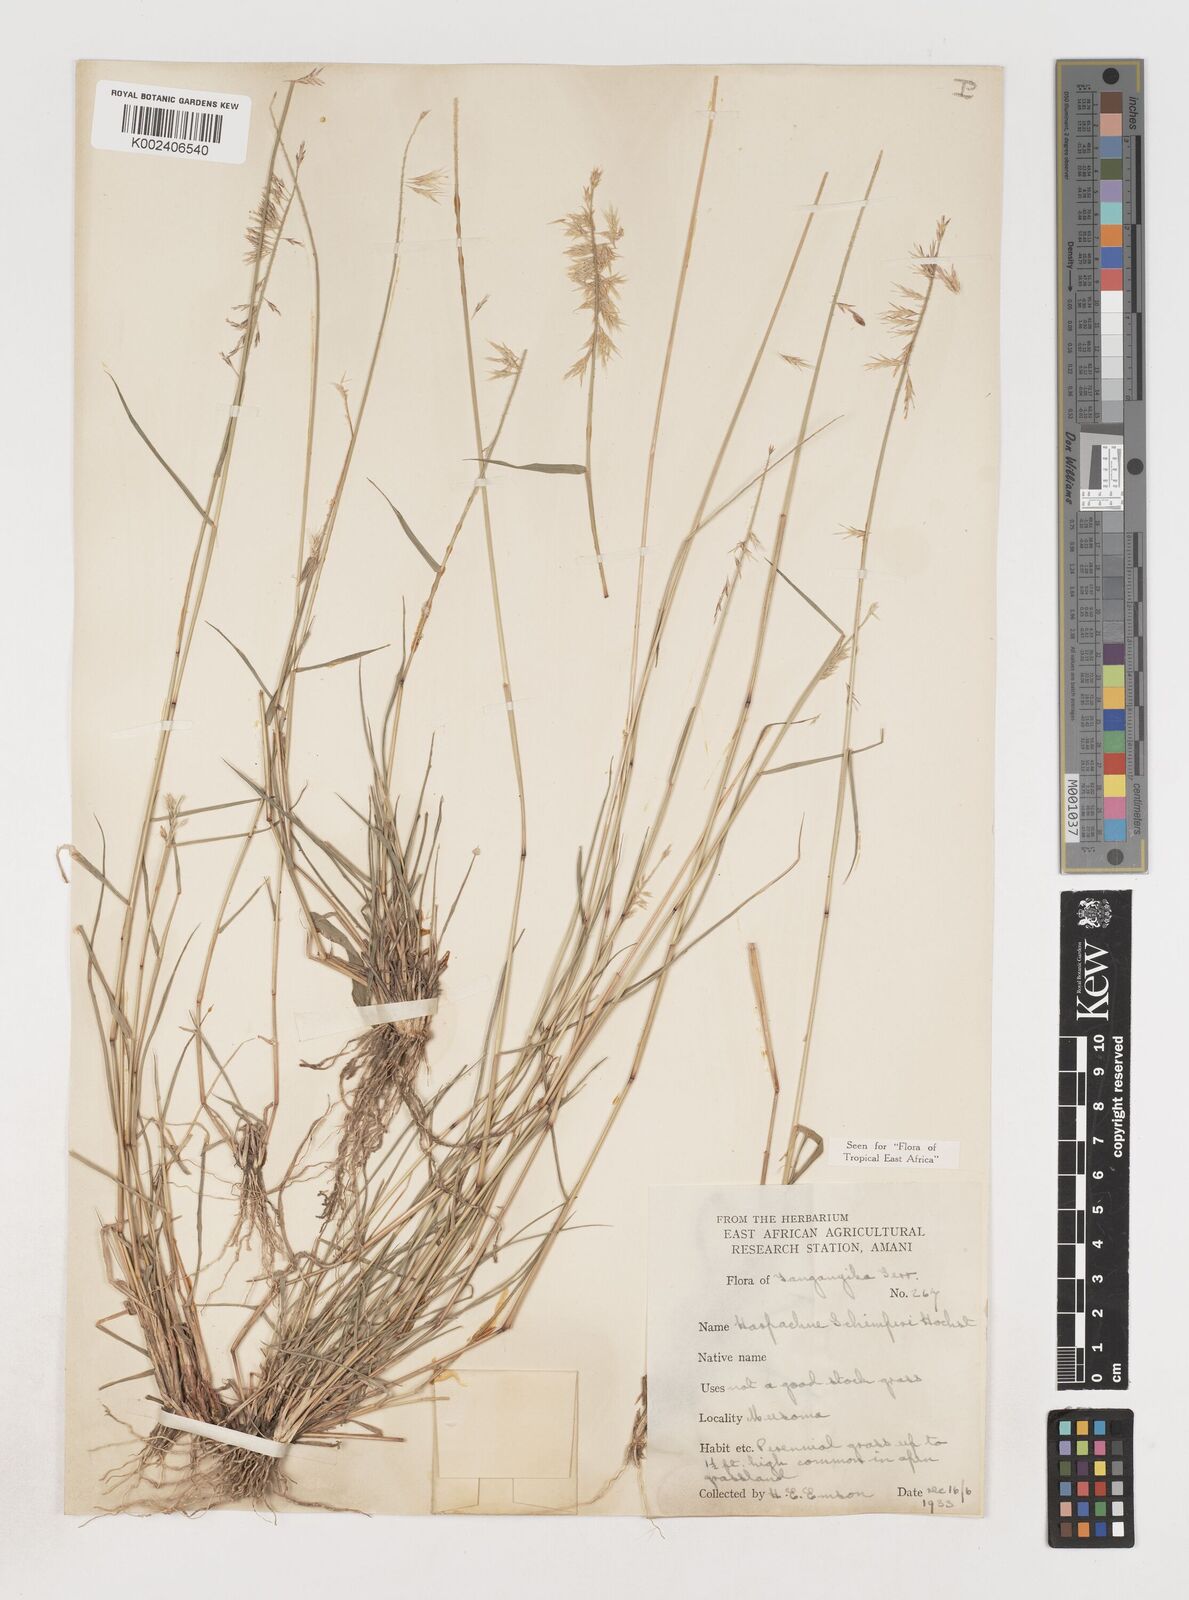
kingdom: Plantae
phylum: Tracheophyta
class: Liliopsida
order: Poales
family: Poaceae
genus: Harpachne
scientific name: Harpachne schimperi
